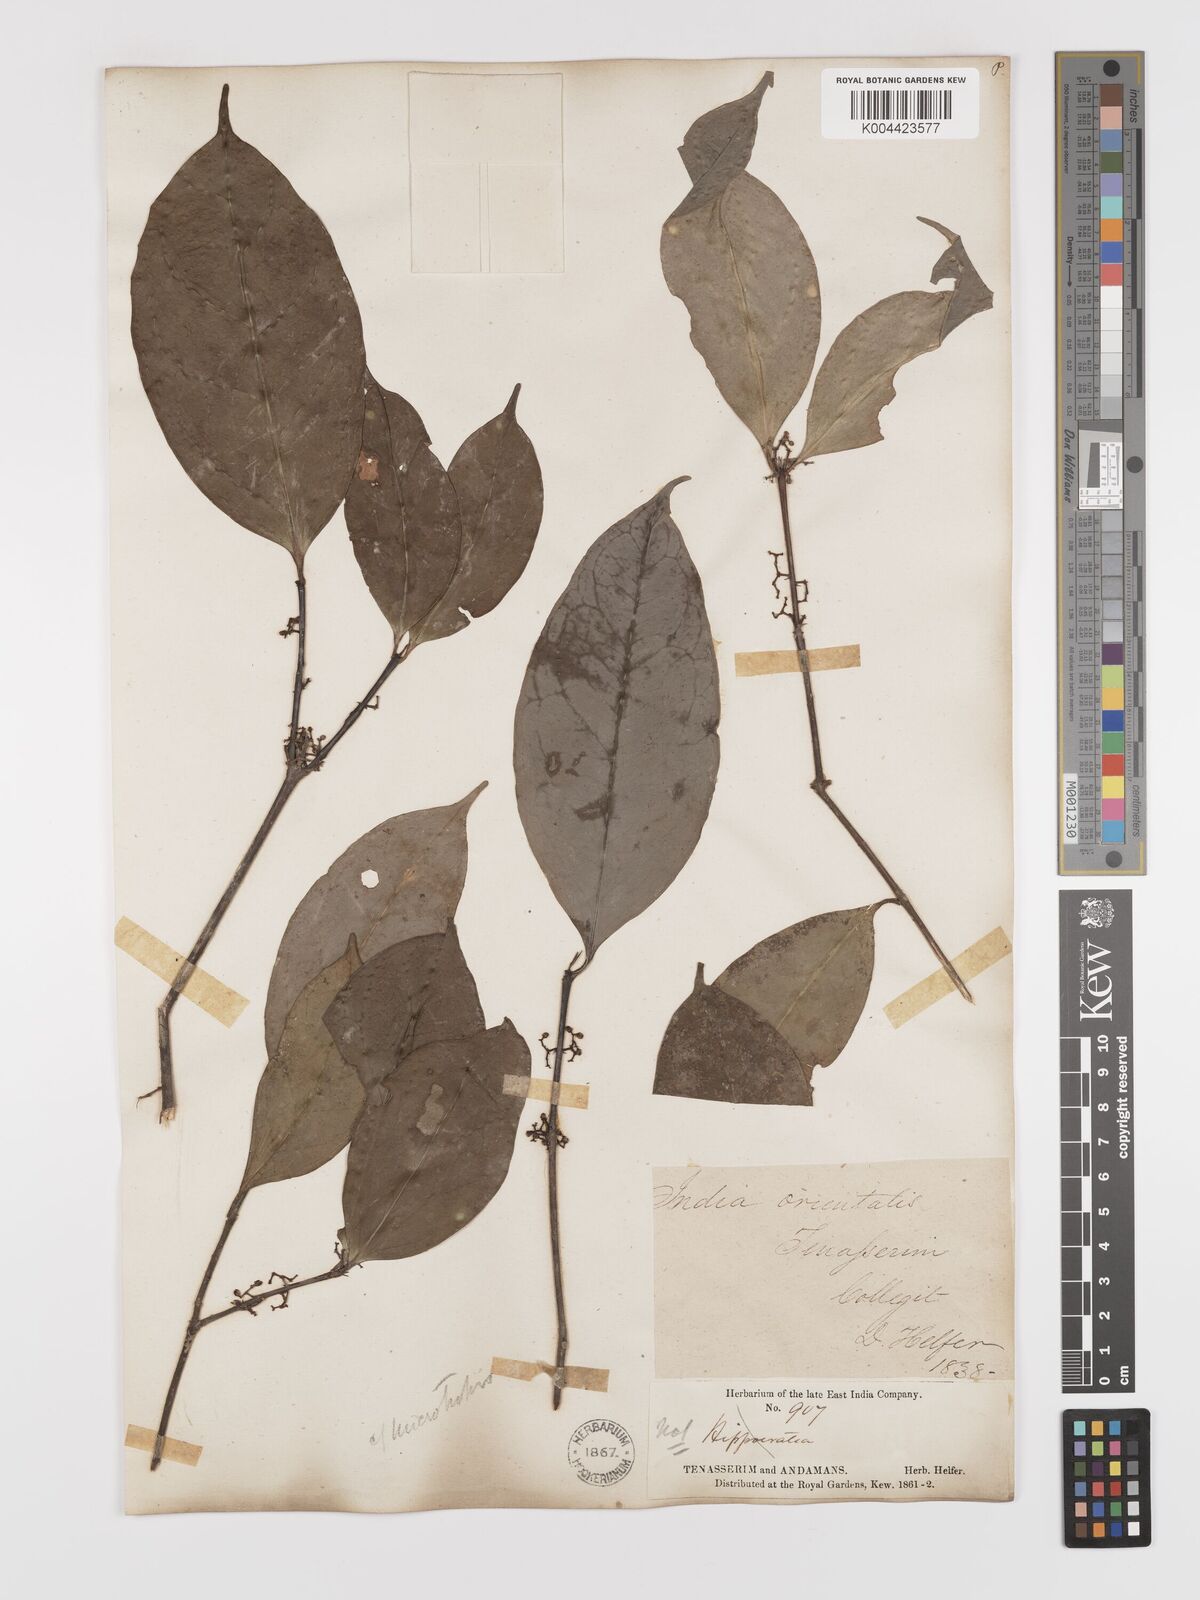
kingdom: Plantae
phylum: Tracheophyta
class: Magnoliopsida
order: Celastrales
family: Celastraceae
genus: Microtropis
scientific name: Microtropis discolor
